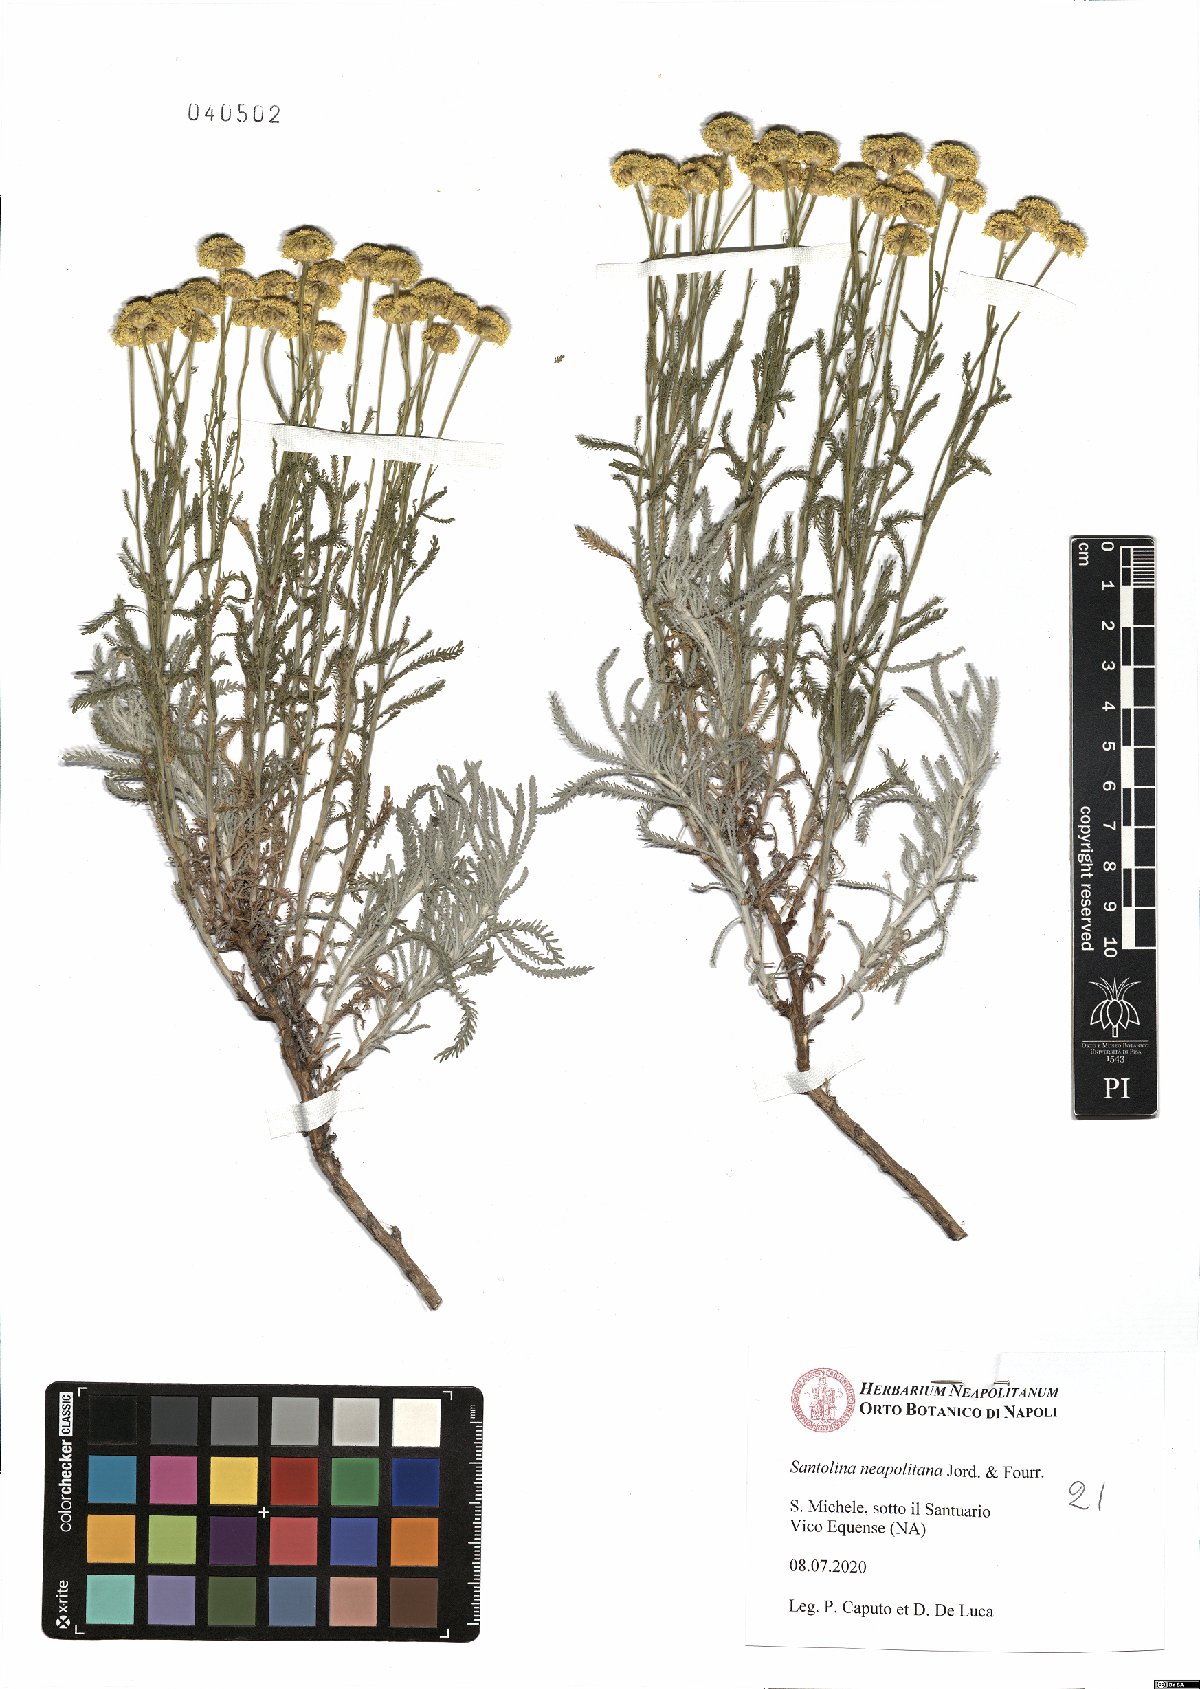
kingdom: Plantae
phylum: Tracheophyta
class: Magnoliopsida
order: Asterales
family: Asteraceae
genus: Santolina
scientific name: Santolina neapolitana
